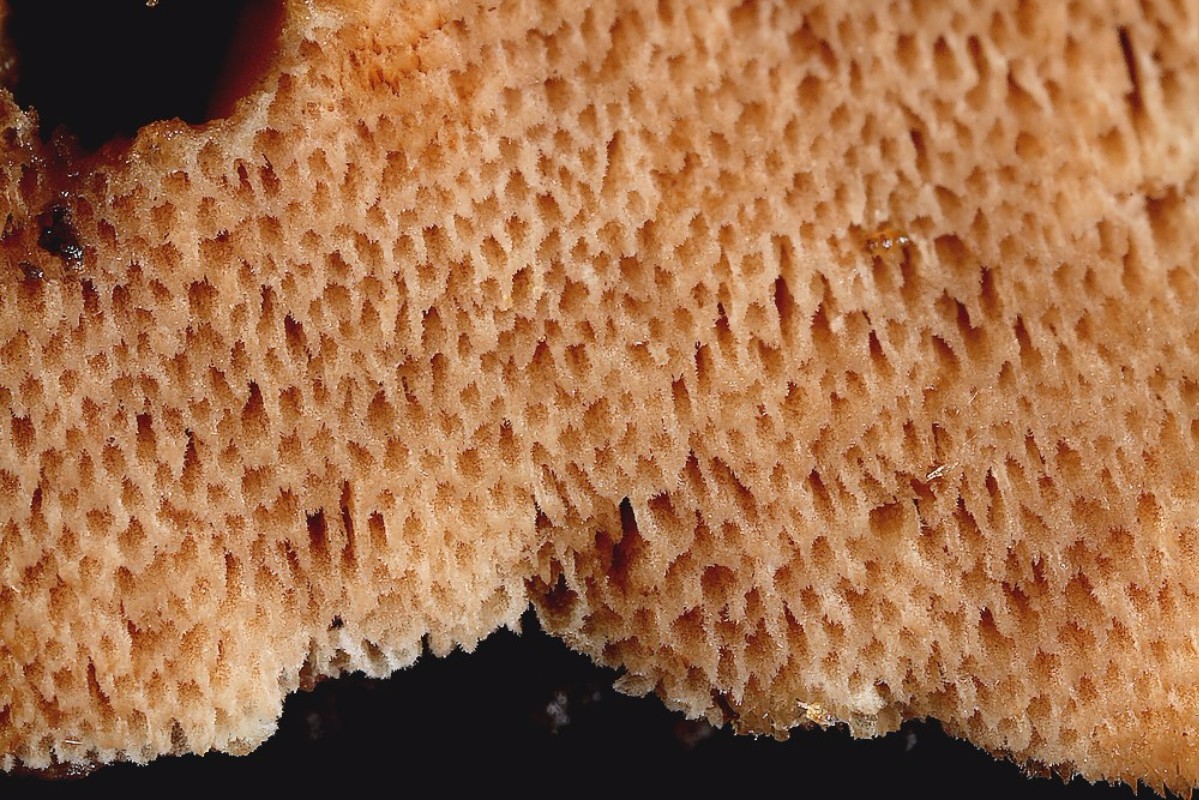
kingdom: Fungi
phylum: Basidiomycota
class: Agaricomycetes
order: Polyporales
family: Meripilaceae
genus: Rigidoporus
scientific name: Rigidoporus sanguinolentus
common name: blod-skorpeporesvamp
